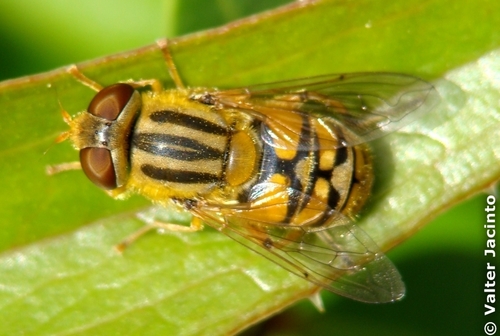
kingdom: Animalia
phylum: Arthropoda
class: Insecta
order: Diptera
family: Syrphidae
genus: Parhelophilus
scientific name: Parhelophilus frutetorum
